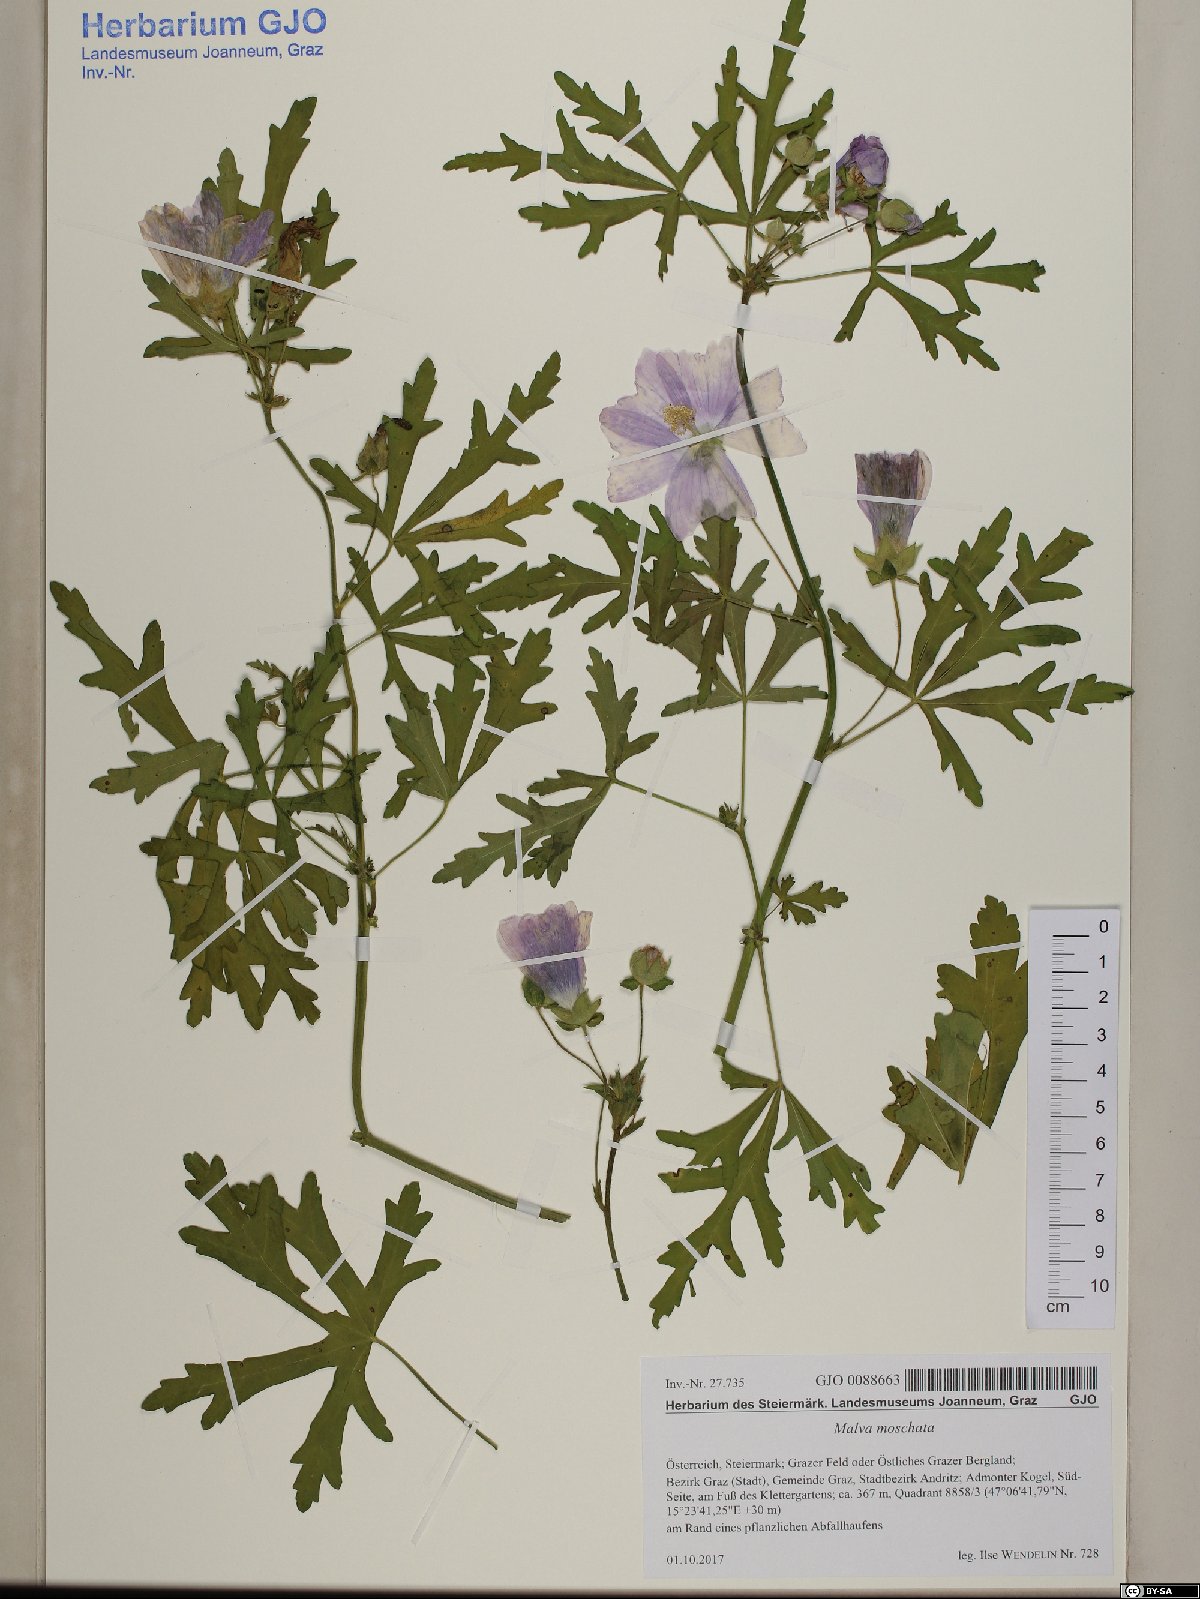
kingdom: Plantae
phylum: Tracheophyta
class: Magnoliopsida
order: Malvales
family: Malvaceae
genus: Malva
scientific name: Malva moschata
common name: Musk mallow
